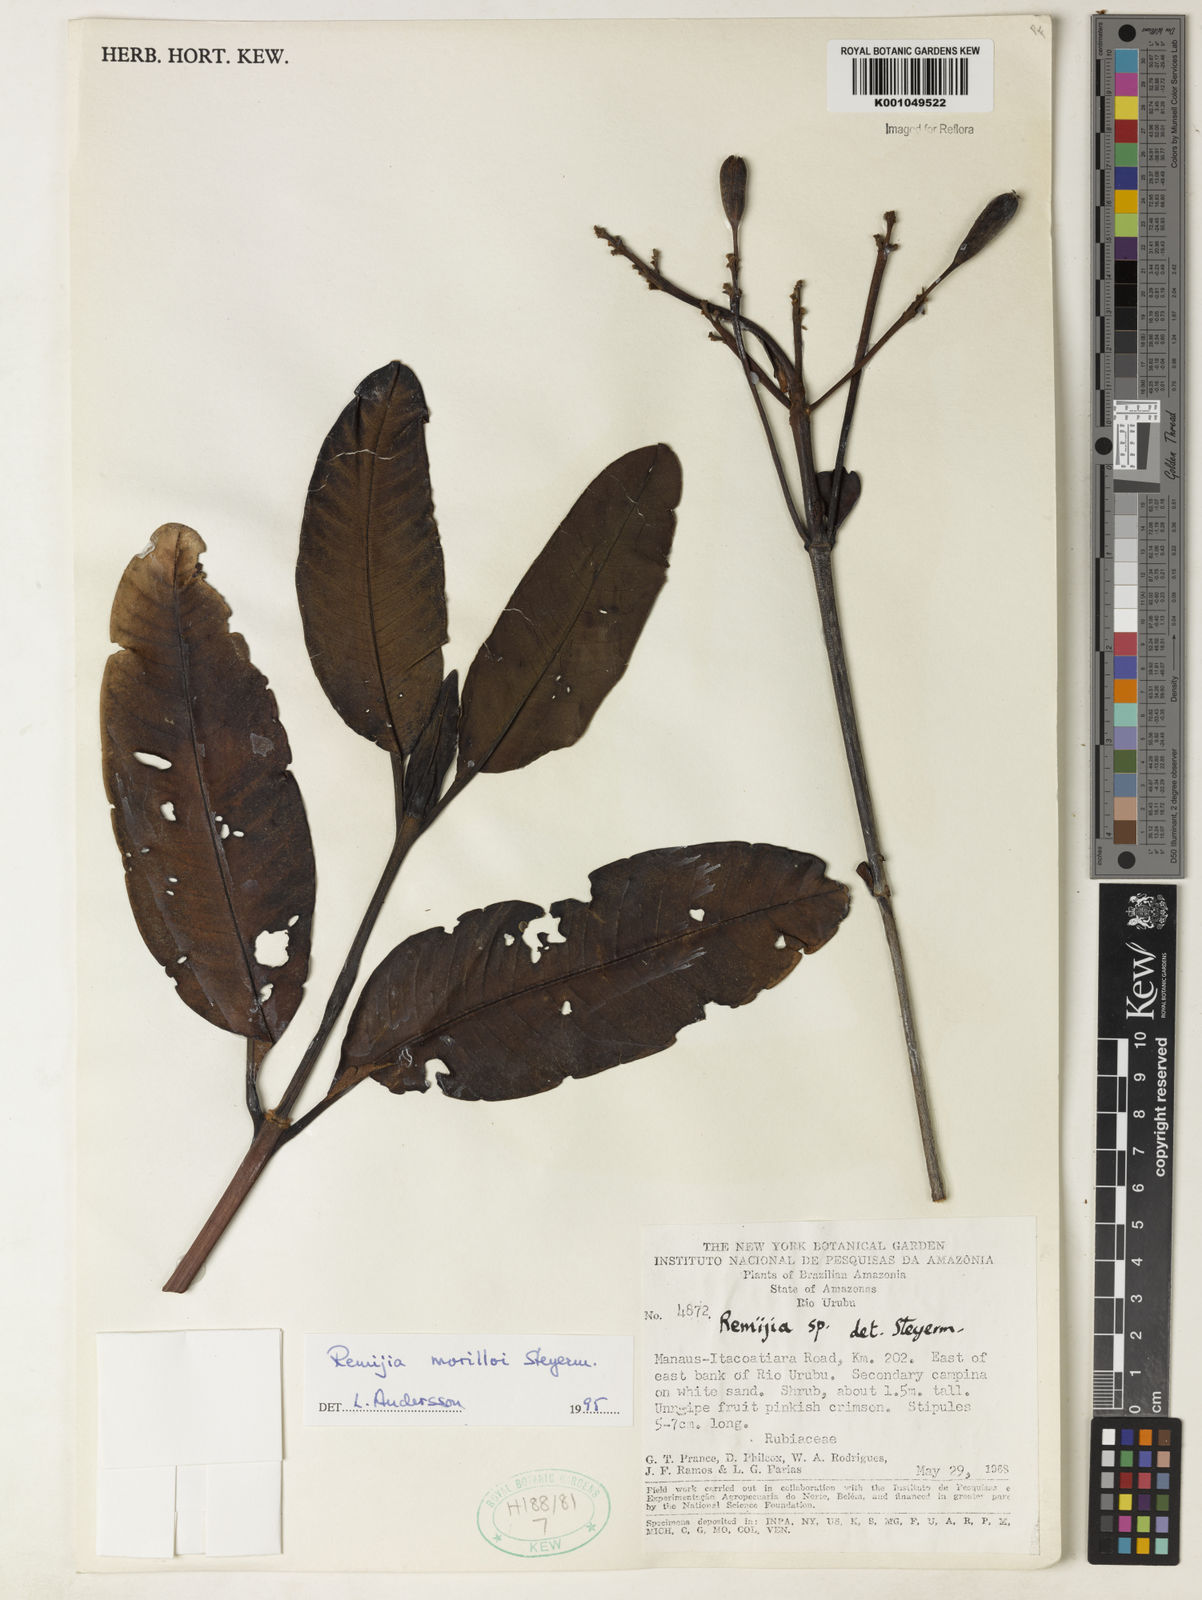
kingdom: Plantae
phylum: Tracheophyta
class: Magnoliopsida
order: Gentianales
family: Rubiaceae
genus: Remijia
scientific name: Remijia morilloi
